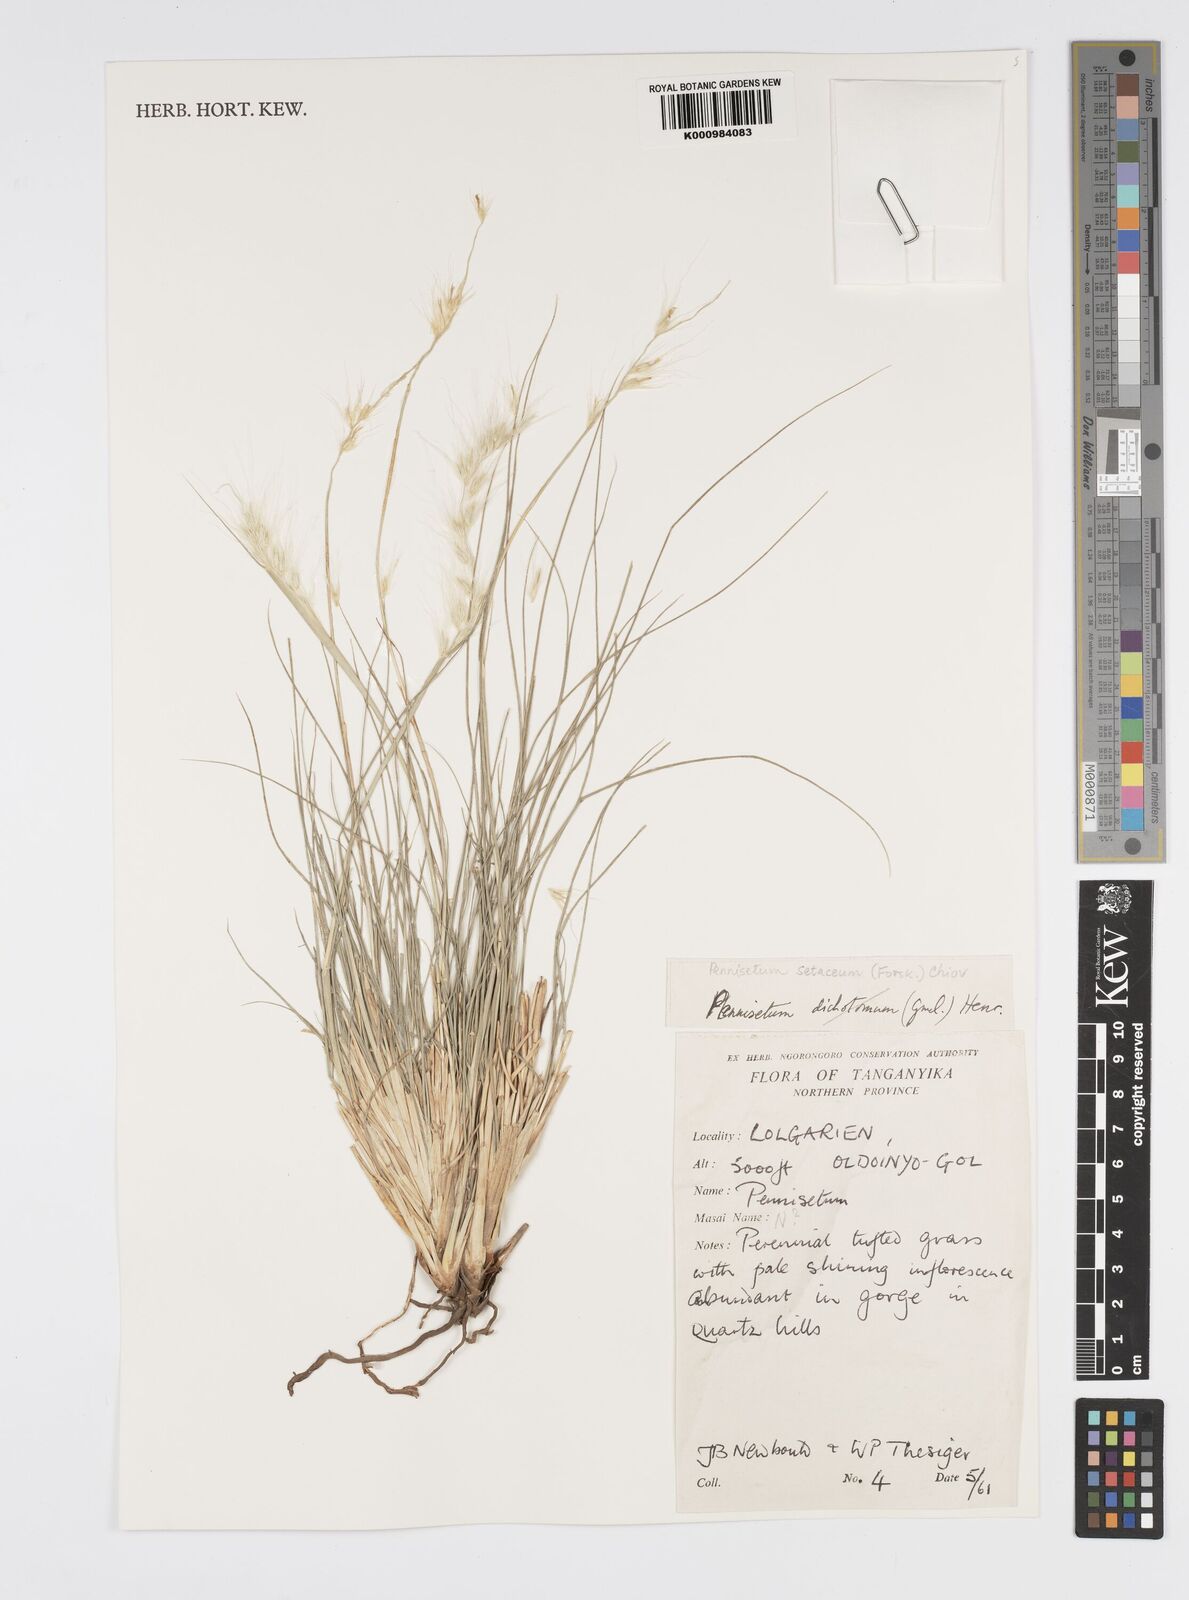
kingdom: Plantae
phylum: Tracheophyta
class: Liliopsida
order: Poales
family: Poaceae
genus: Cenchrus
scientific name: Cenchrus setaceus
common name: Crimson fountaingrass
